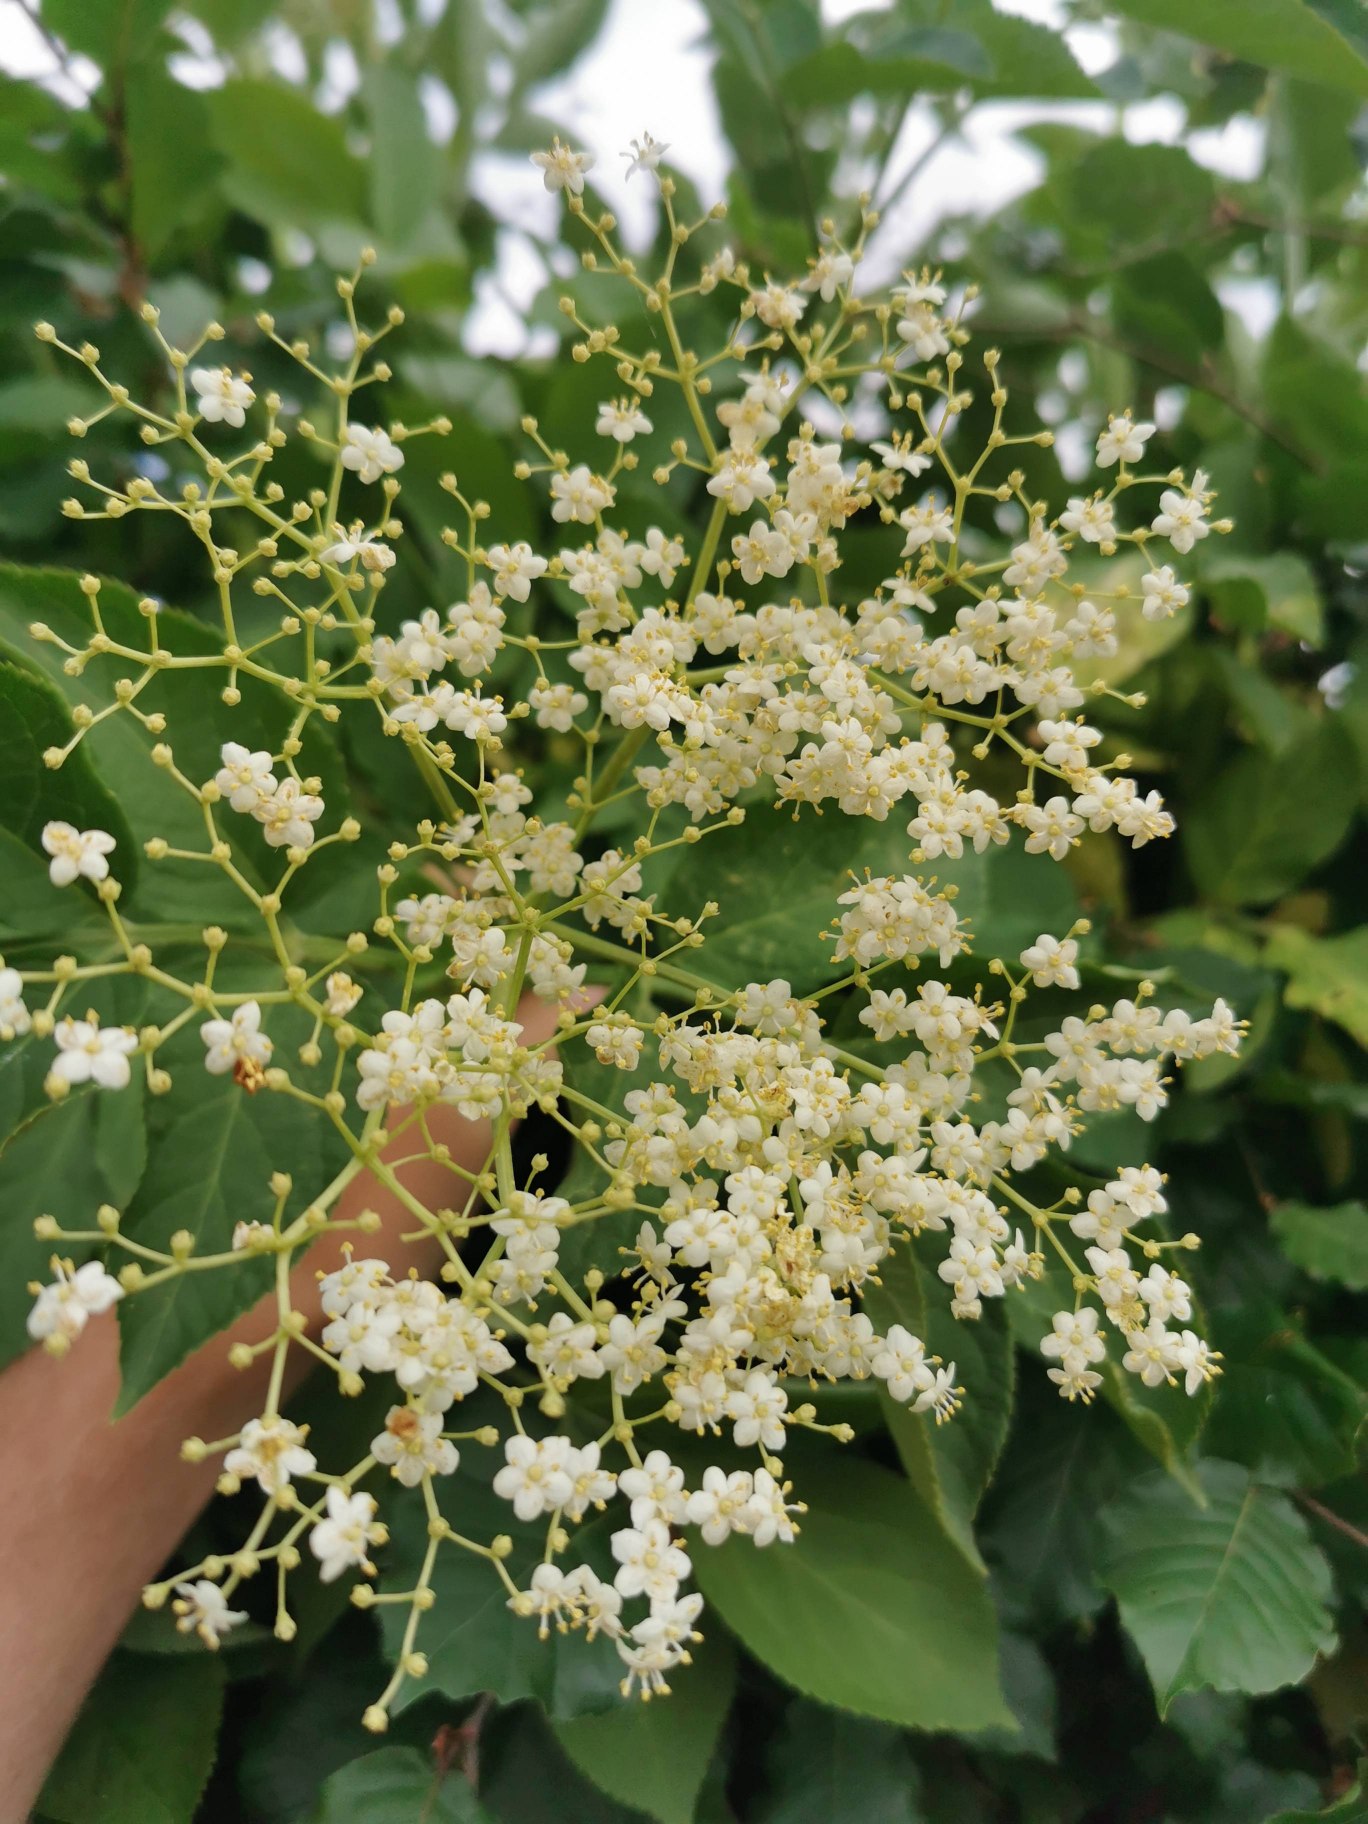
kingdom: Plantae
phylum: Tracheophyta
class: Magnoliopsida
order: Dipsacales
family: Viburnaceae
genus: Sambucus
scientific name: Sambucus nigra
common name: Almindelig hyld
